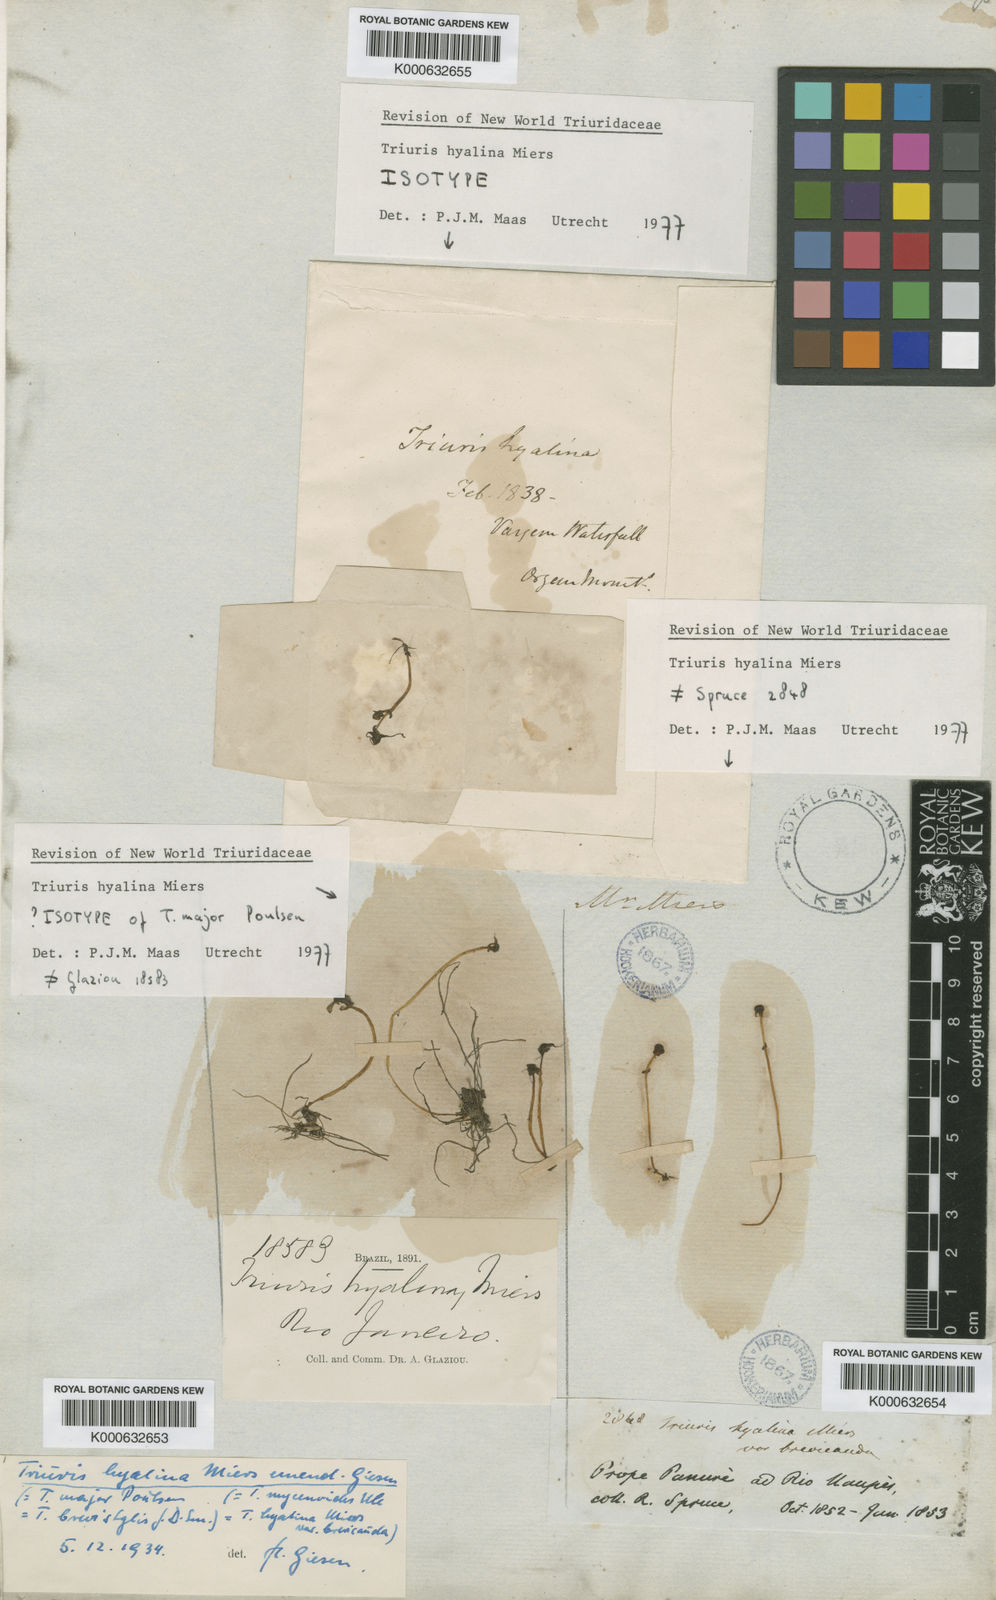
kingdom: Plantae
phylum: Tracheophyta
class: Liliopsida
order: Pandanales
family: Triuridaceae
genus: Triuris
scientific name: Triuris hyalina
